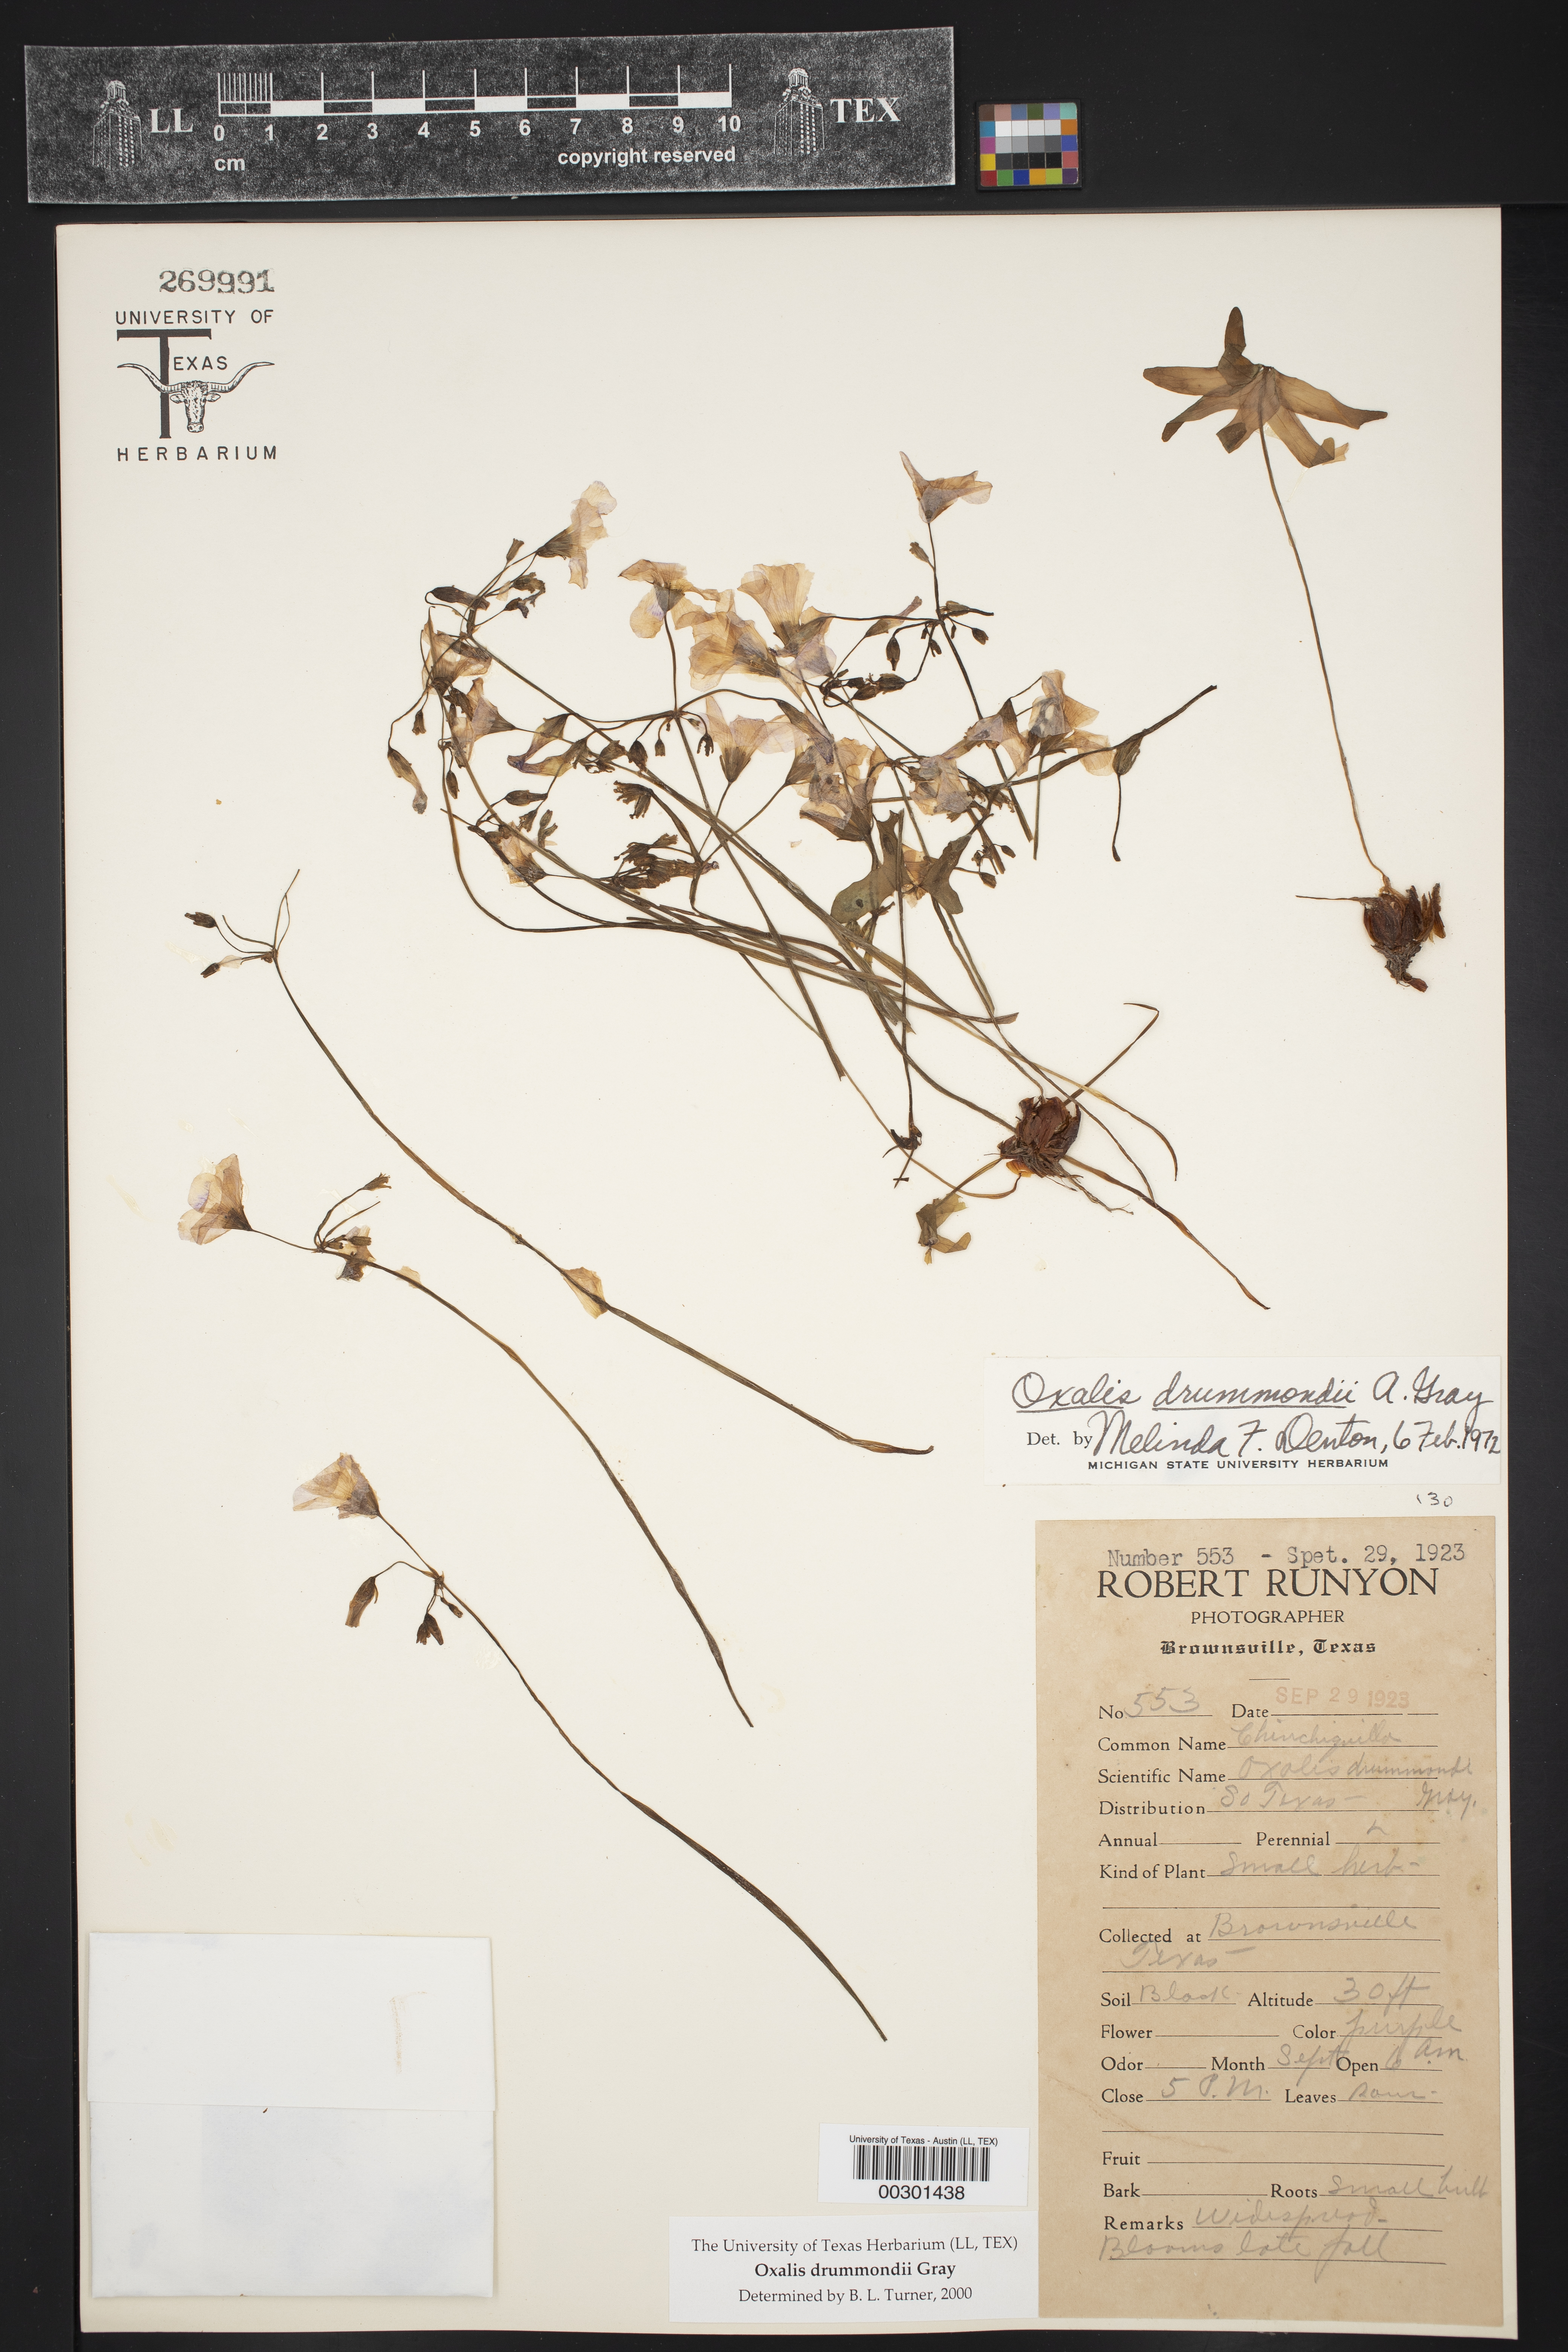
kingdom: Plantae
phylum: Tracheophyta
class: Magnoliopsida
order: Oxalidales
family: Oxalidaceae
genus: Oxalis
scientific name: Oxalis drummondii
